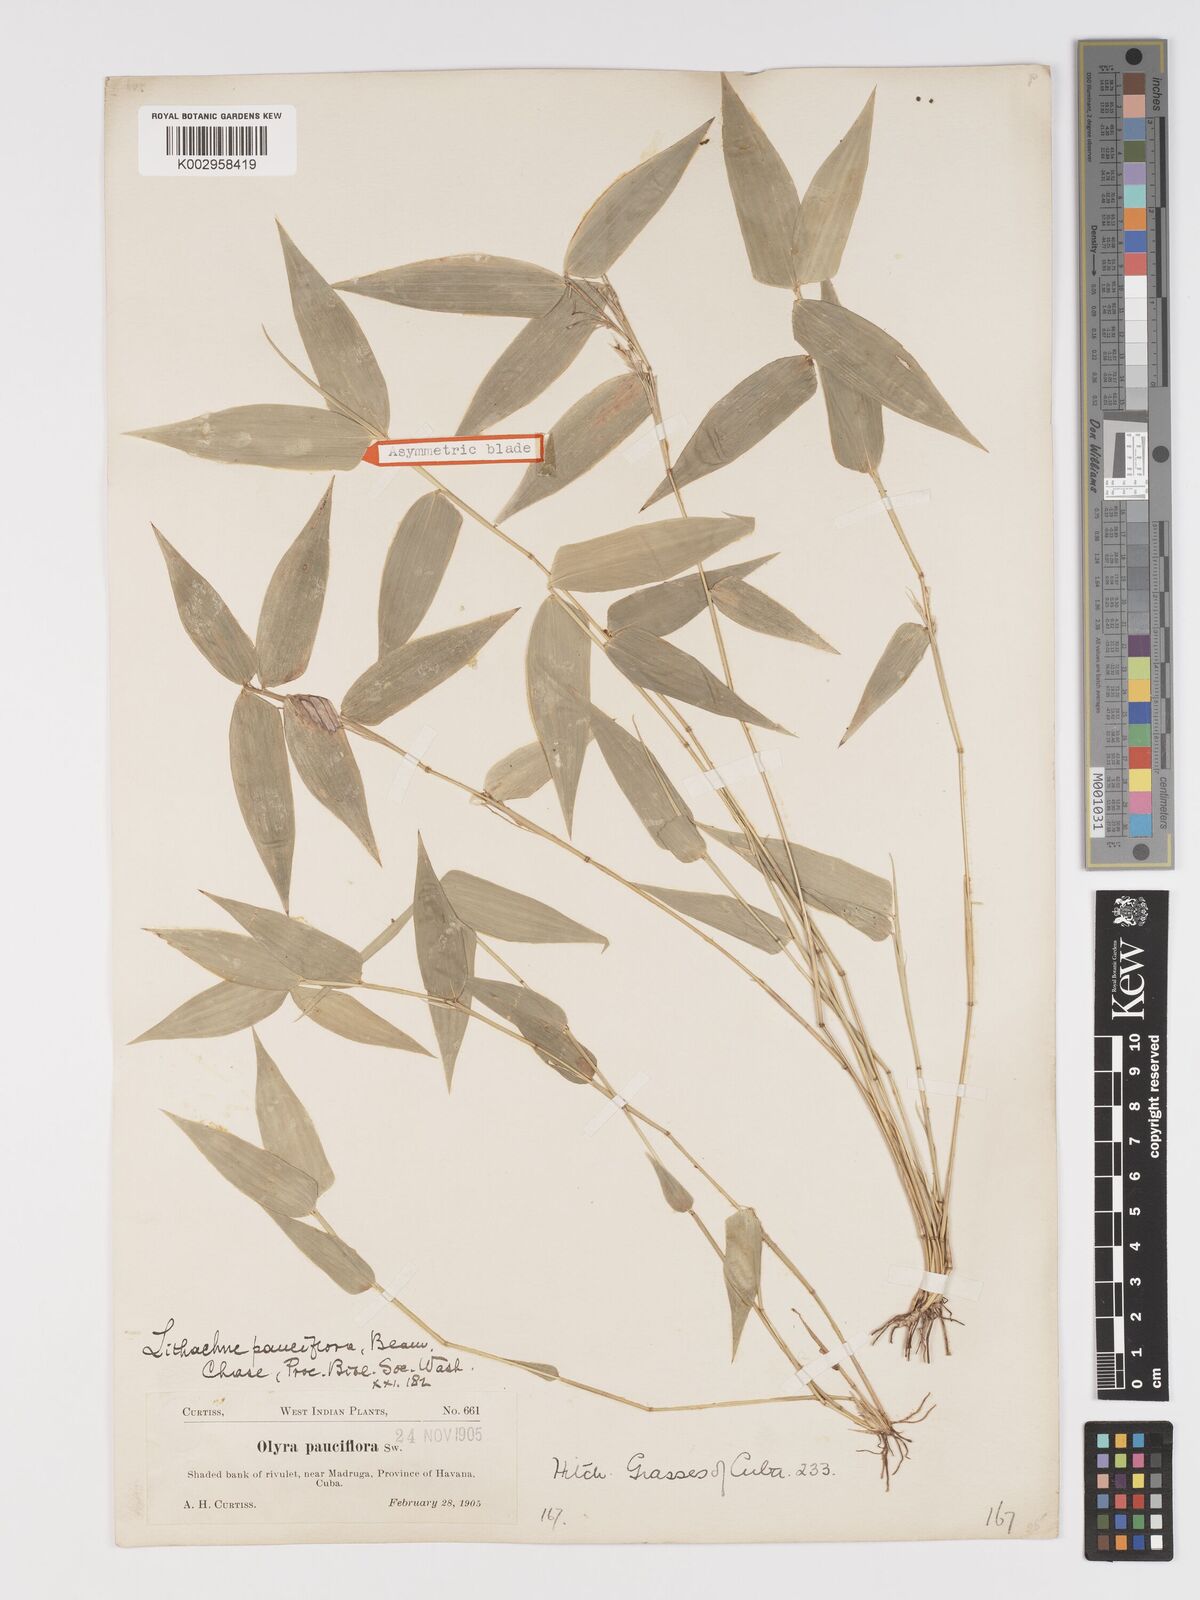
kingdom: Plantae
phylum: Tracheophyta
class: Liliopsida
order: Poales
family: Poaceae
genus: Lithachne
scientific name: Lithachne pauciflora
